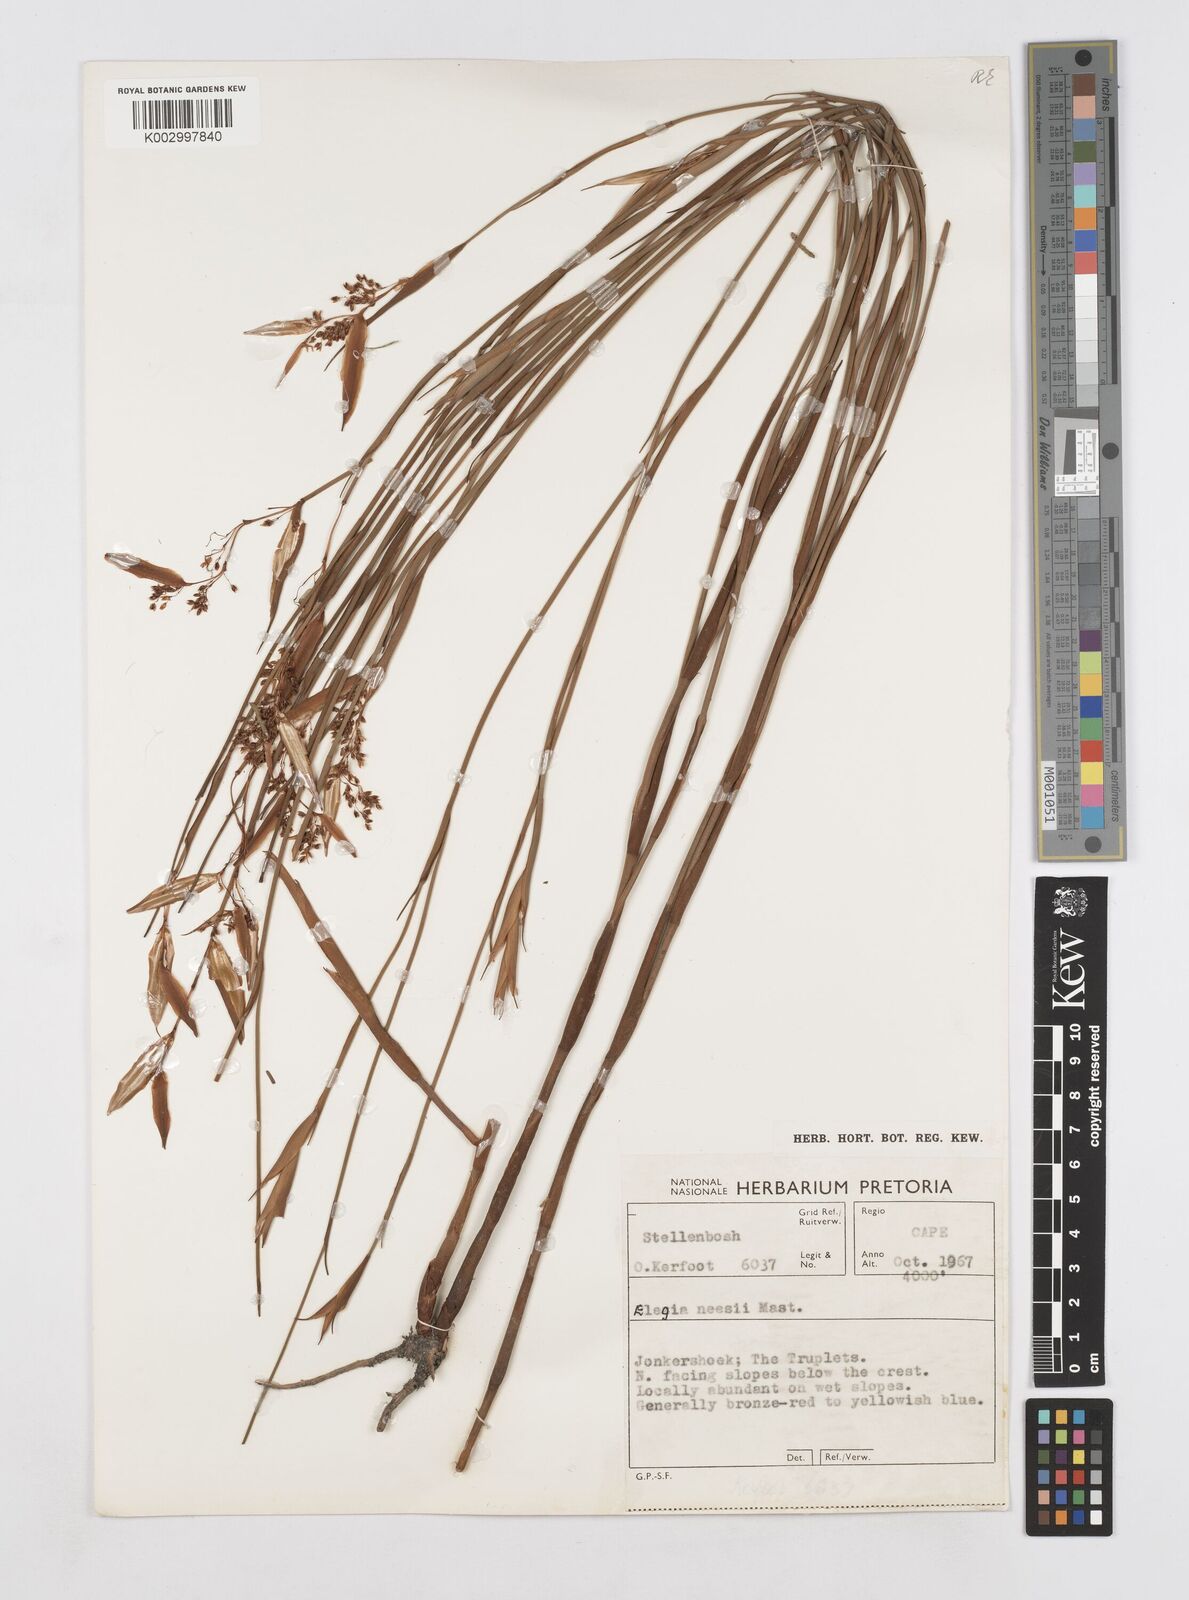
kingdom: Plantae
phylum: Tracheophyta
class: Liliopsida
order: Poales
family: Restionaceae
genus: Elegia
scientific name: Elegia neesii
